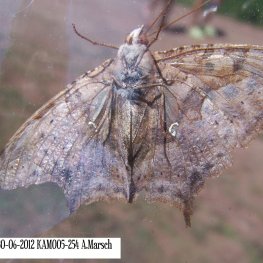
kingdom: Animalia
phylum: Arthropoda
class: Insecta
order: Lepidoptera
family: Nymphalidae
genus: Polygonia
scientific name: Polygonia interrogationis
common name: Question Mark
